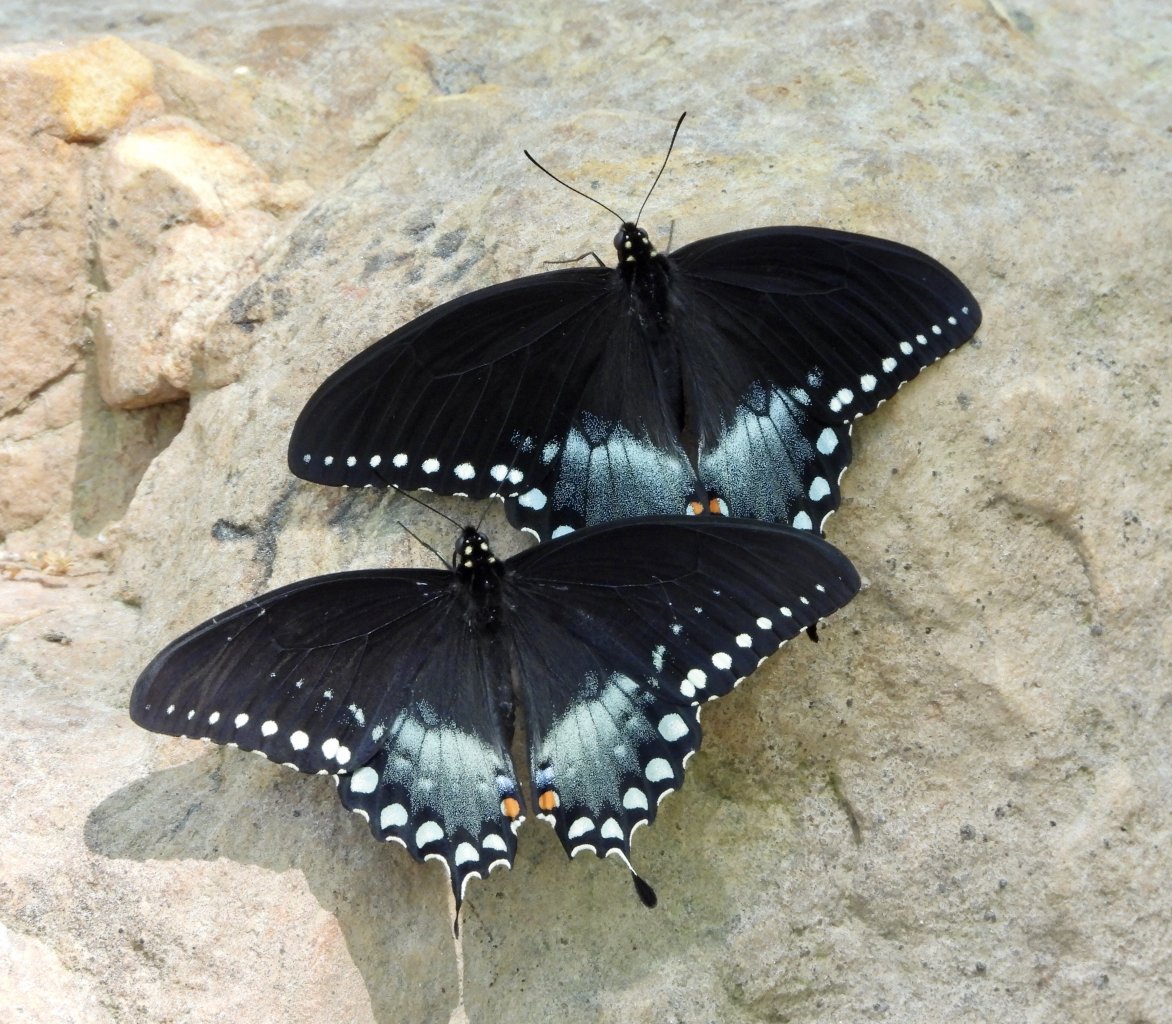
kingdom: Animalia
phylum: Arthropoda
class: Insecta
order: Lepidoptera
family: Papilionidae
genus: Pterourus
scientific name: Pterourus troilus
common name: Spicebush Swallowtail
